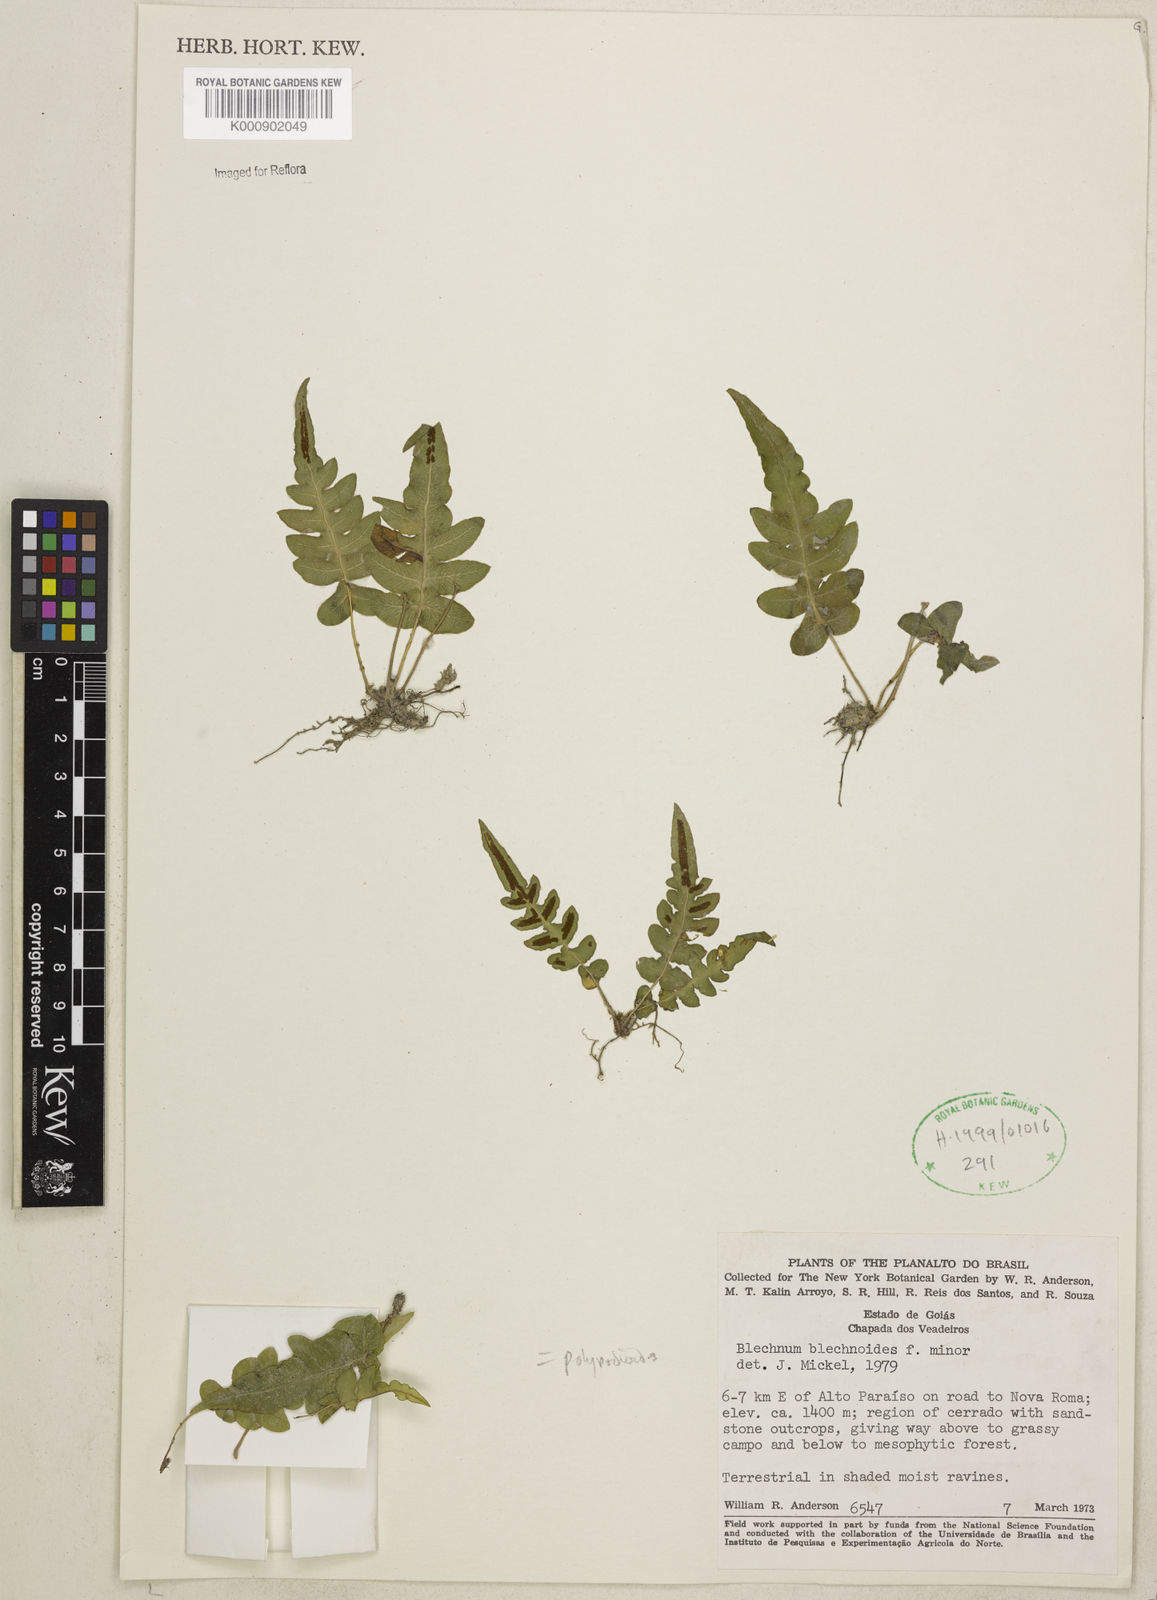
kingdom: Plantae
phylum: Tracheophyta
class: Polypodiopsida
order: Polypodiales
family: Blechnaceae
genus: Blechnum
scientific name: Blechnum polypodioides
